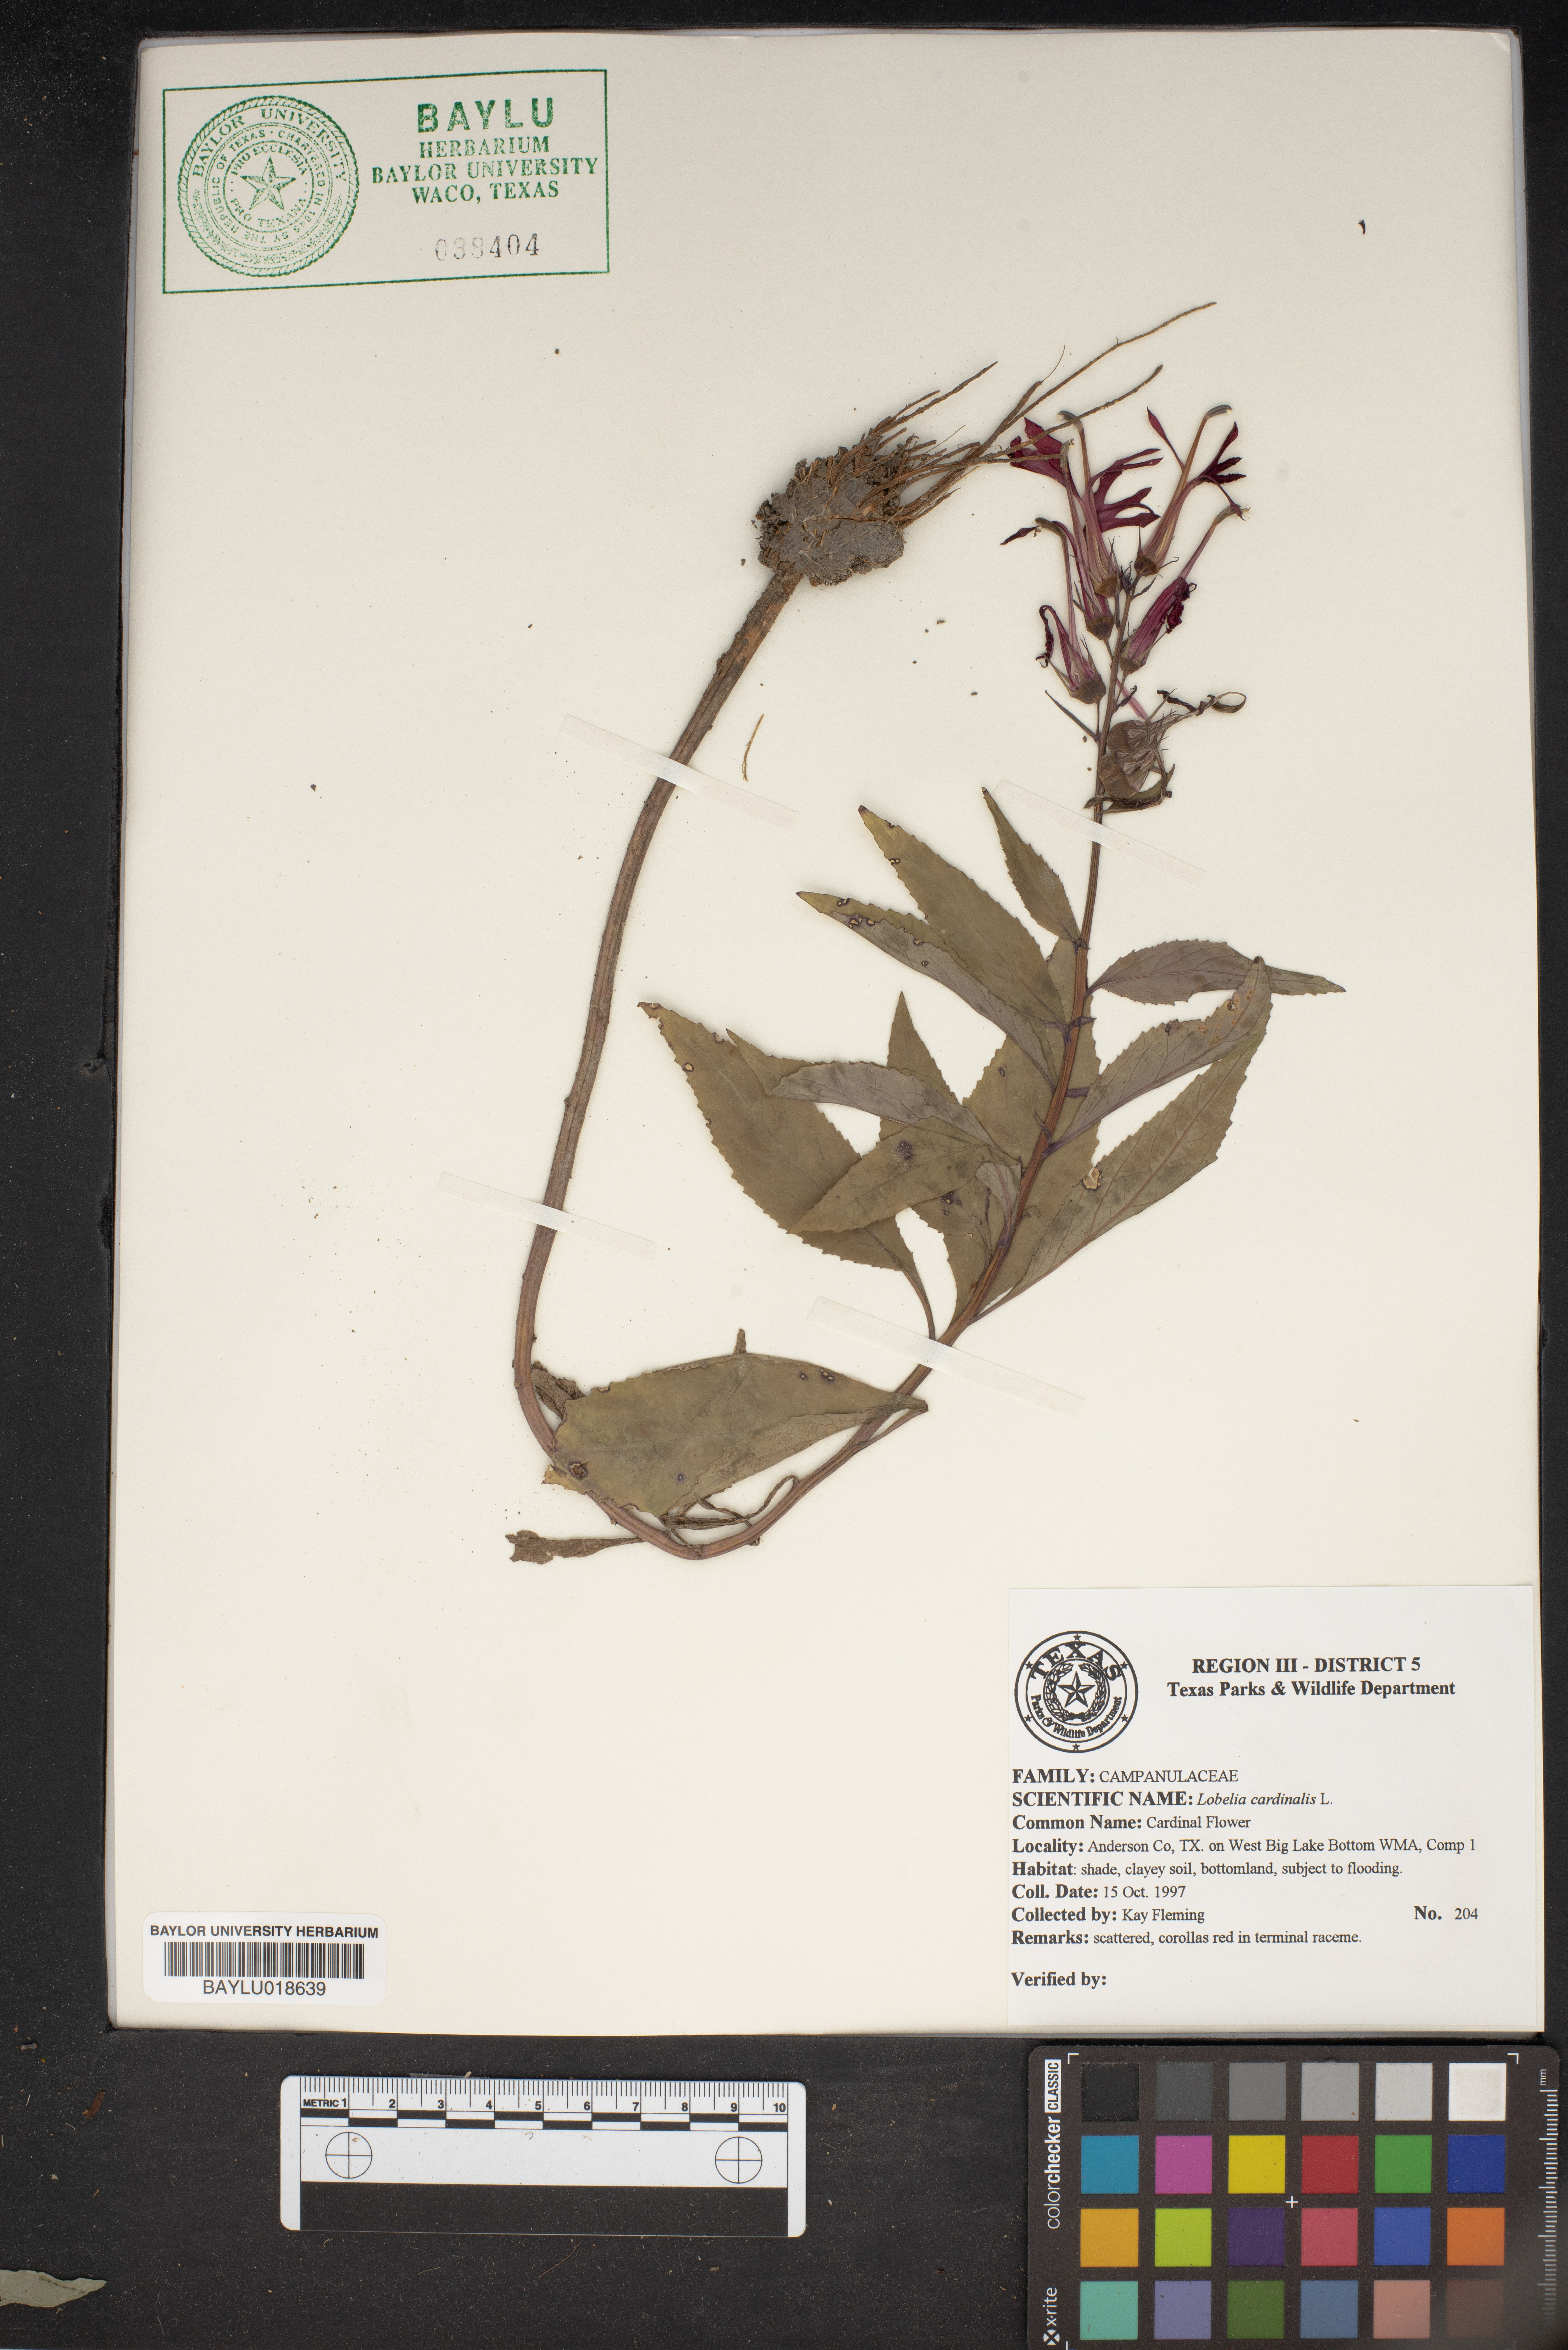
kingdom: Plantae
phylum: Tracheophyta
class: Magnoliopsida
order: Asterales
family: Campanulaceae
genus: Lobelia
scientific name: Lobelia cardinalis
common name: Cardinal flower
